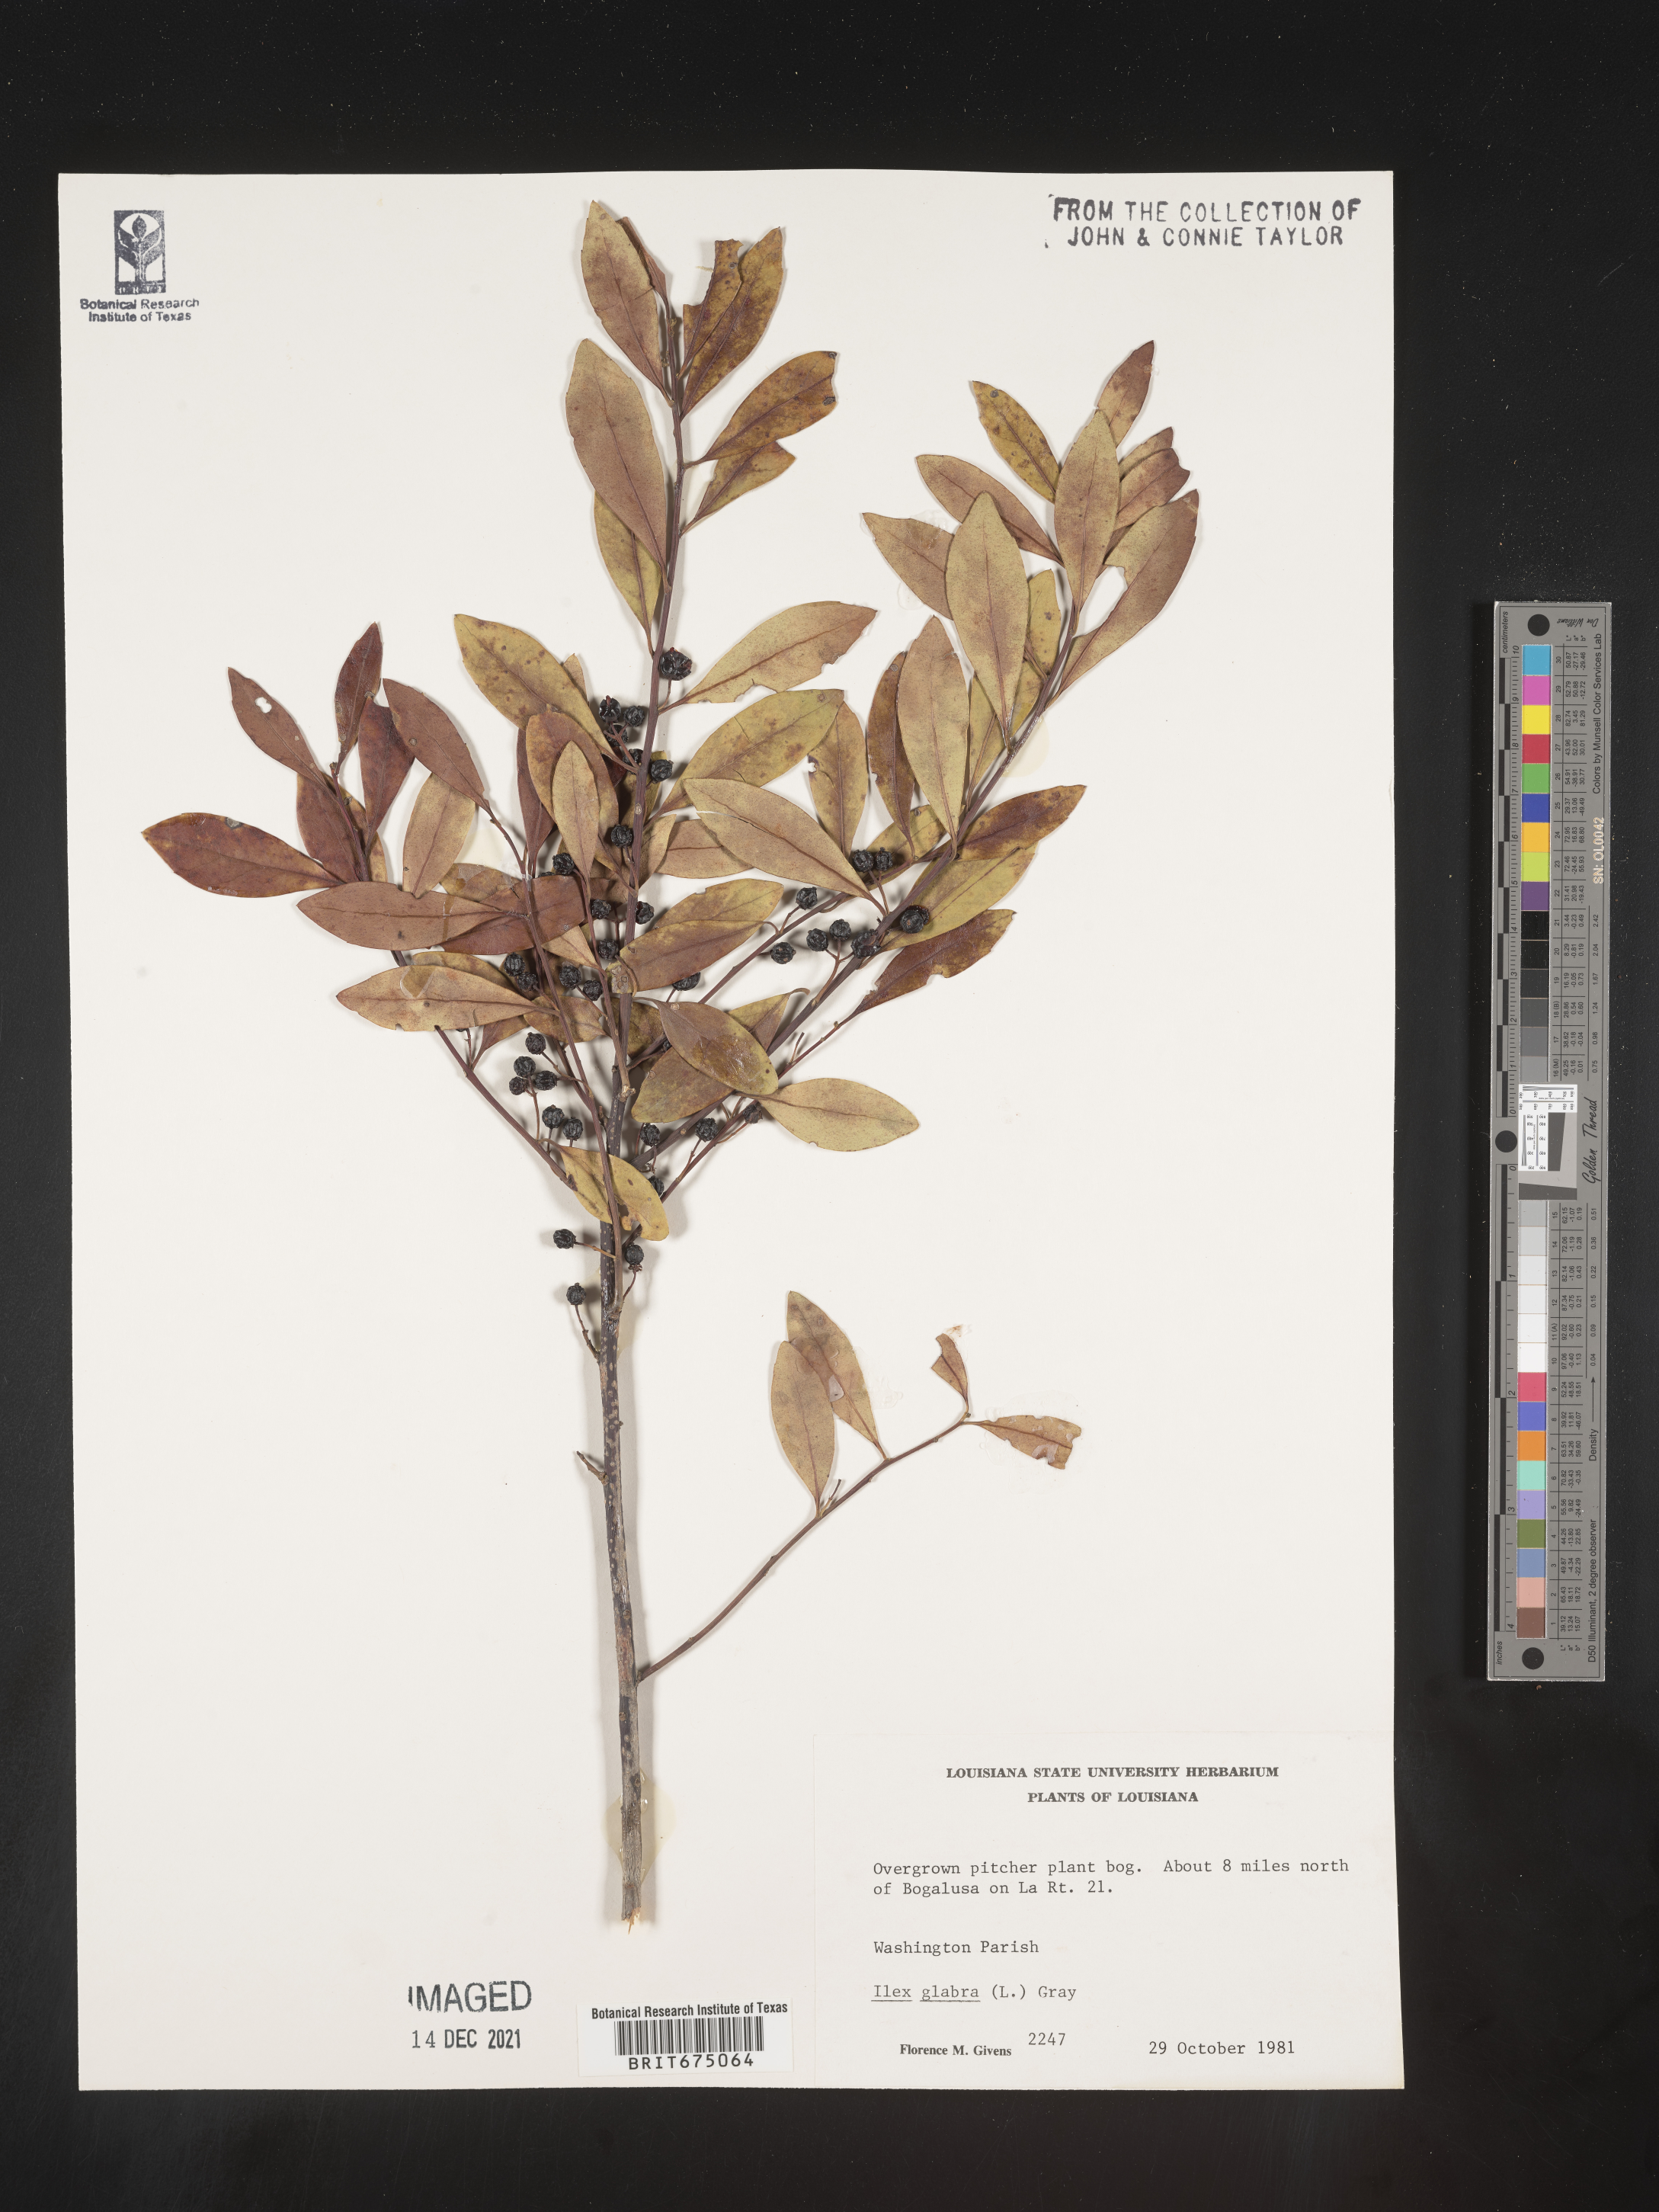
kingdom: Plantae
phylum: Tracheophyta
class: Magnoliopsida
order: Aquifoliales
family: Aquifoliaceae
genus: Ilex
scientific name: Ilex glabra
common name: Bitter gallberry
